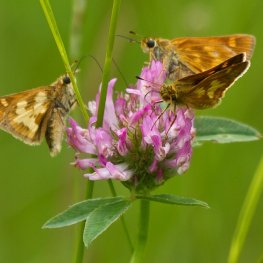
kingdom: Animalia
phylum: Arthropoda
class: Insecta
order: Lepidoptera
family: Hesperiidae
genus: Polites
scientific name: Polites
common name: Long Dash Skipper
